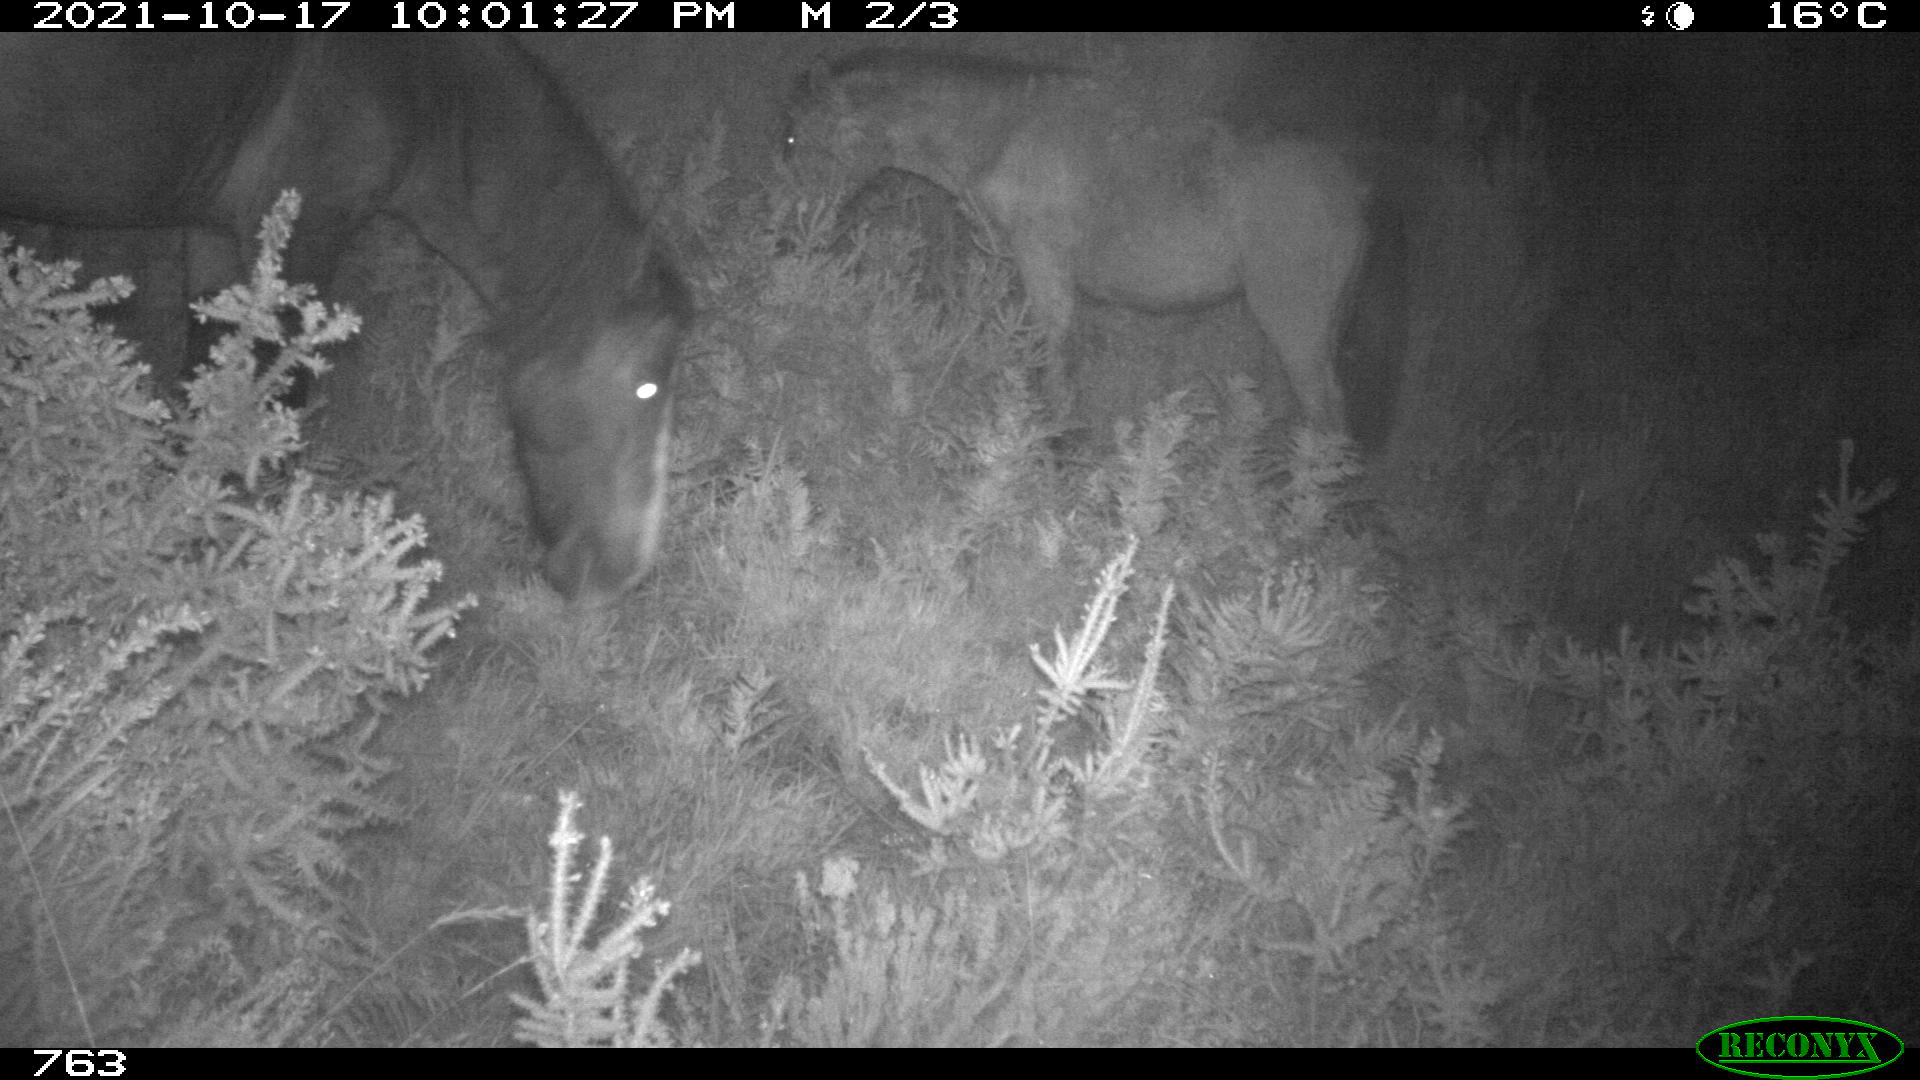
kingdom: Animalia
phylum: Chordata
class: Mammalia
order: Perissodactyla
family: Equidae
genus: Equus
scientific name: Equus caballus
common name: Horse
